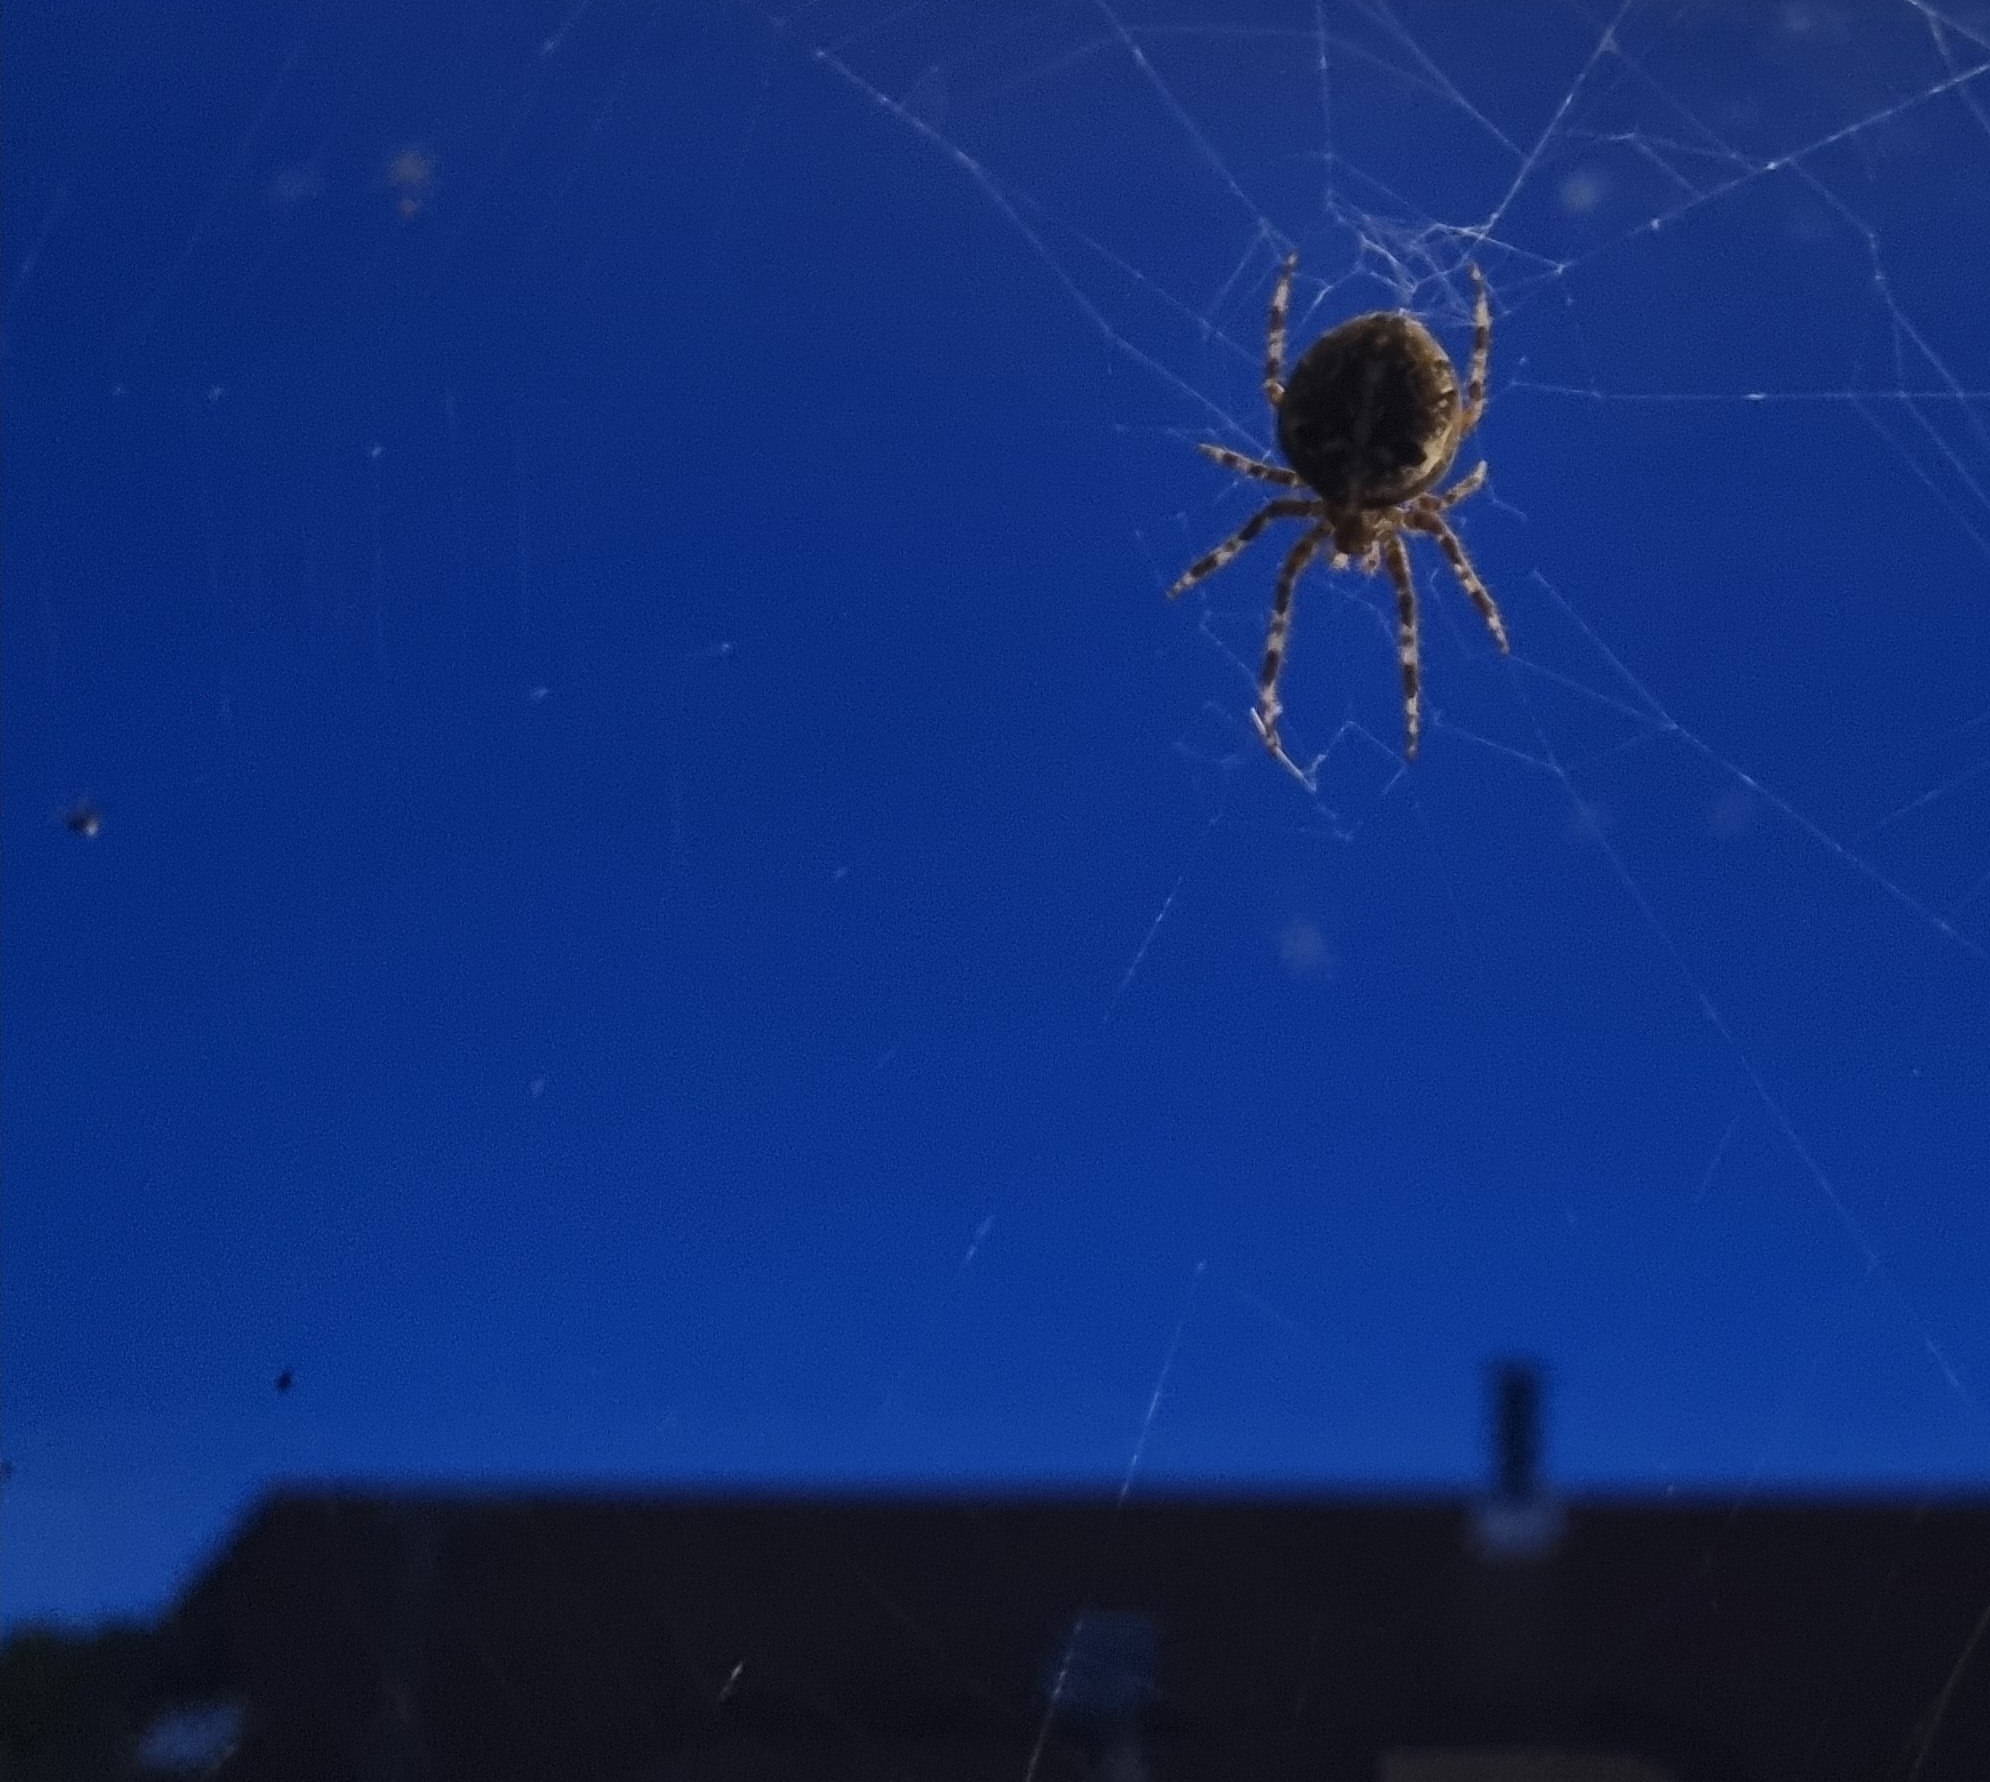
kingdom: Animalia
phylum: Arthropoda
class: Arachnida
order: Araneae
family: Araneidae
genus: Araneus
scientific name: Araneus diadematus
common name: Korsedderkop
